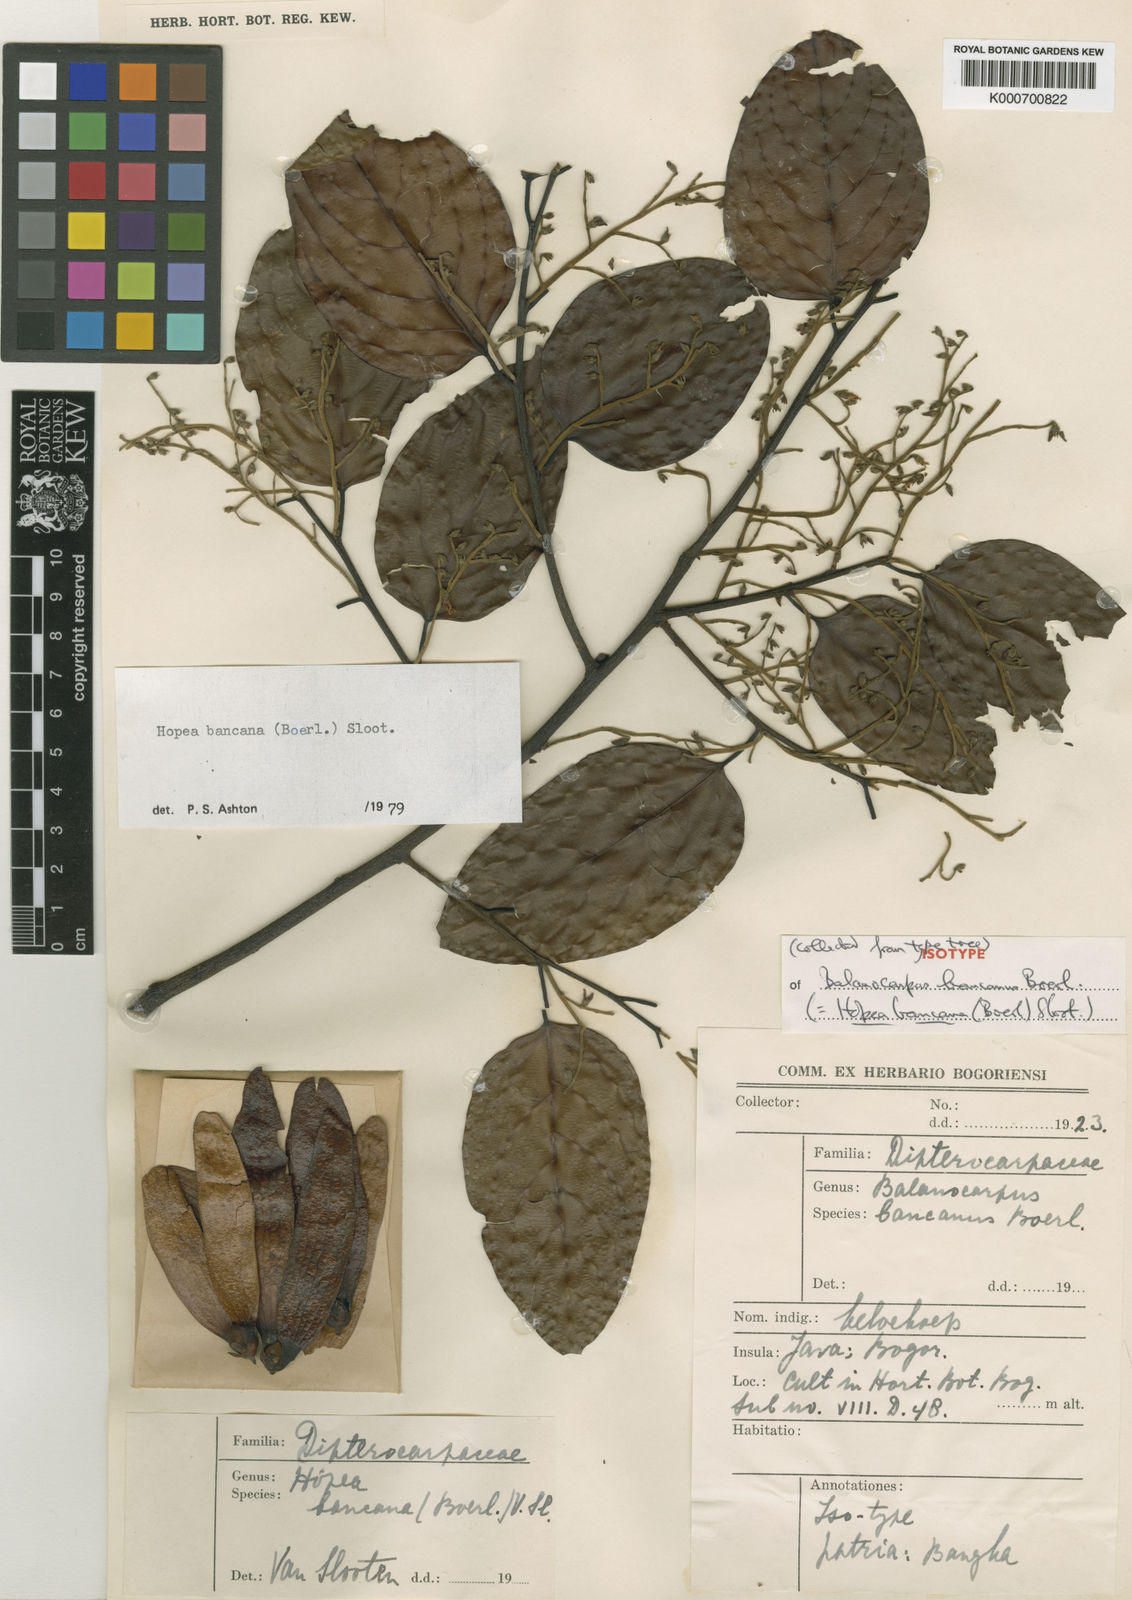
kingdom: Plantae
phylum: Tracheophyta
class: Magnoliopsida
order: Malvales
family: Dipterocarpaceae
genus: Hopea
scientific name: Hopea bancana
